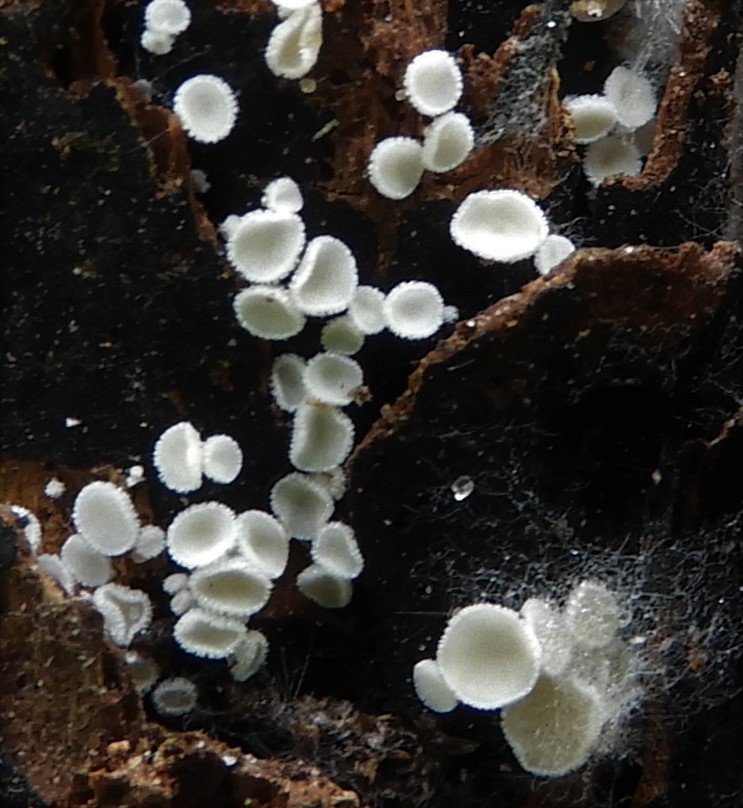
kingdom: Fungi
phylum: Ascomycota
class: Leotiomycetes
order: Helotiales
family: Lachnaceae
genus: Lachnum
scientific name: Lachnum virgineum
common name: jomfru-frynseskive
